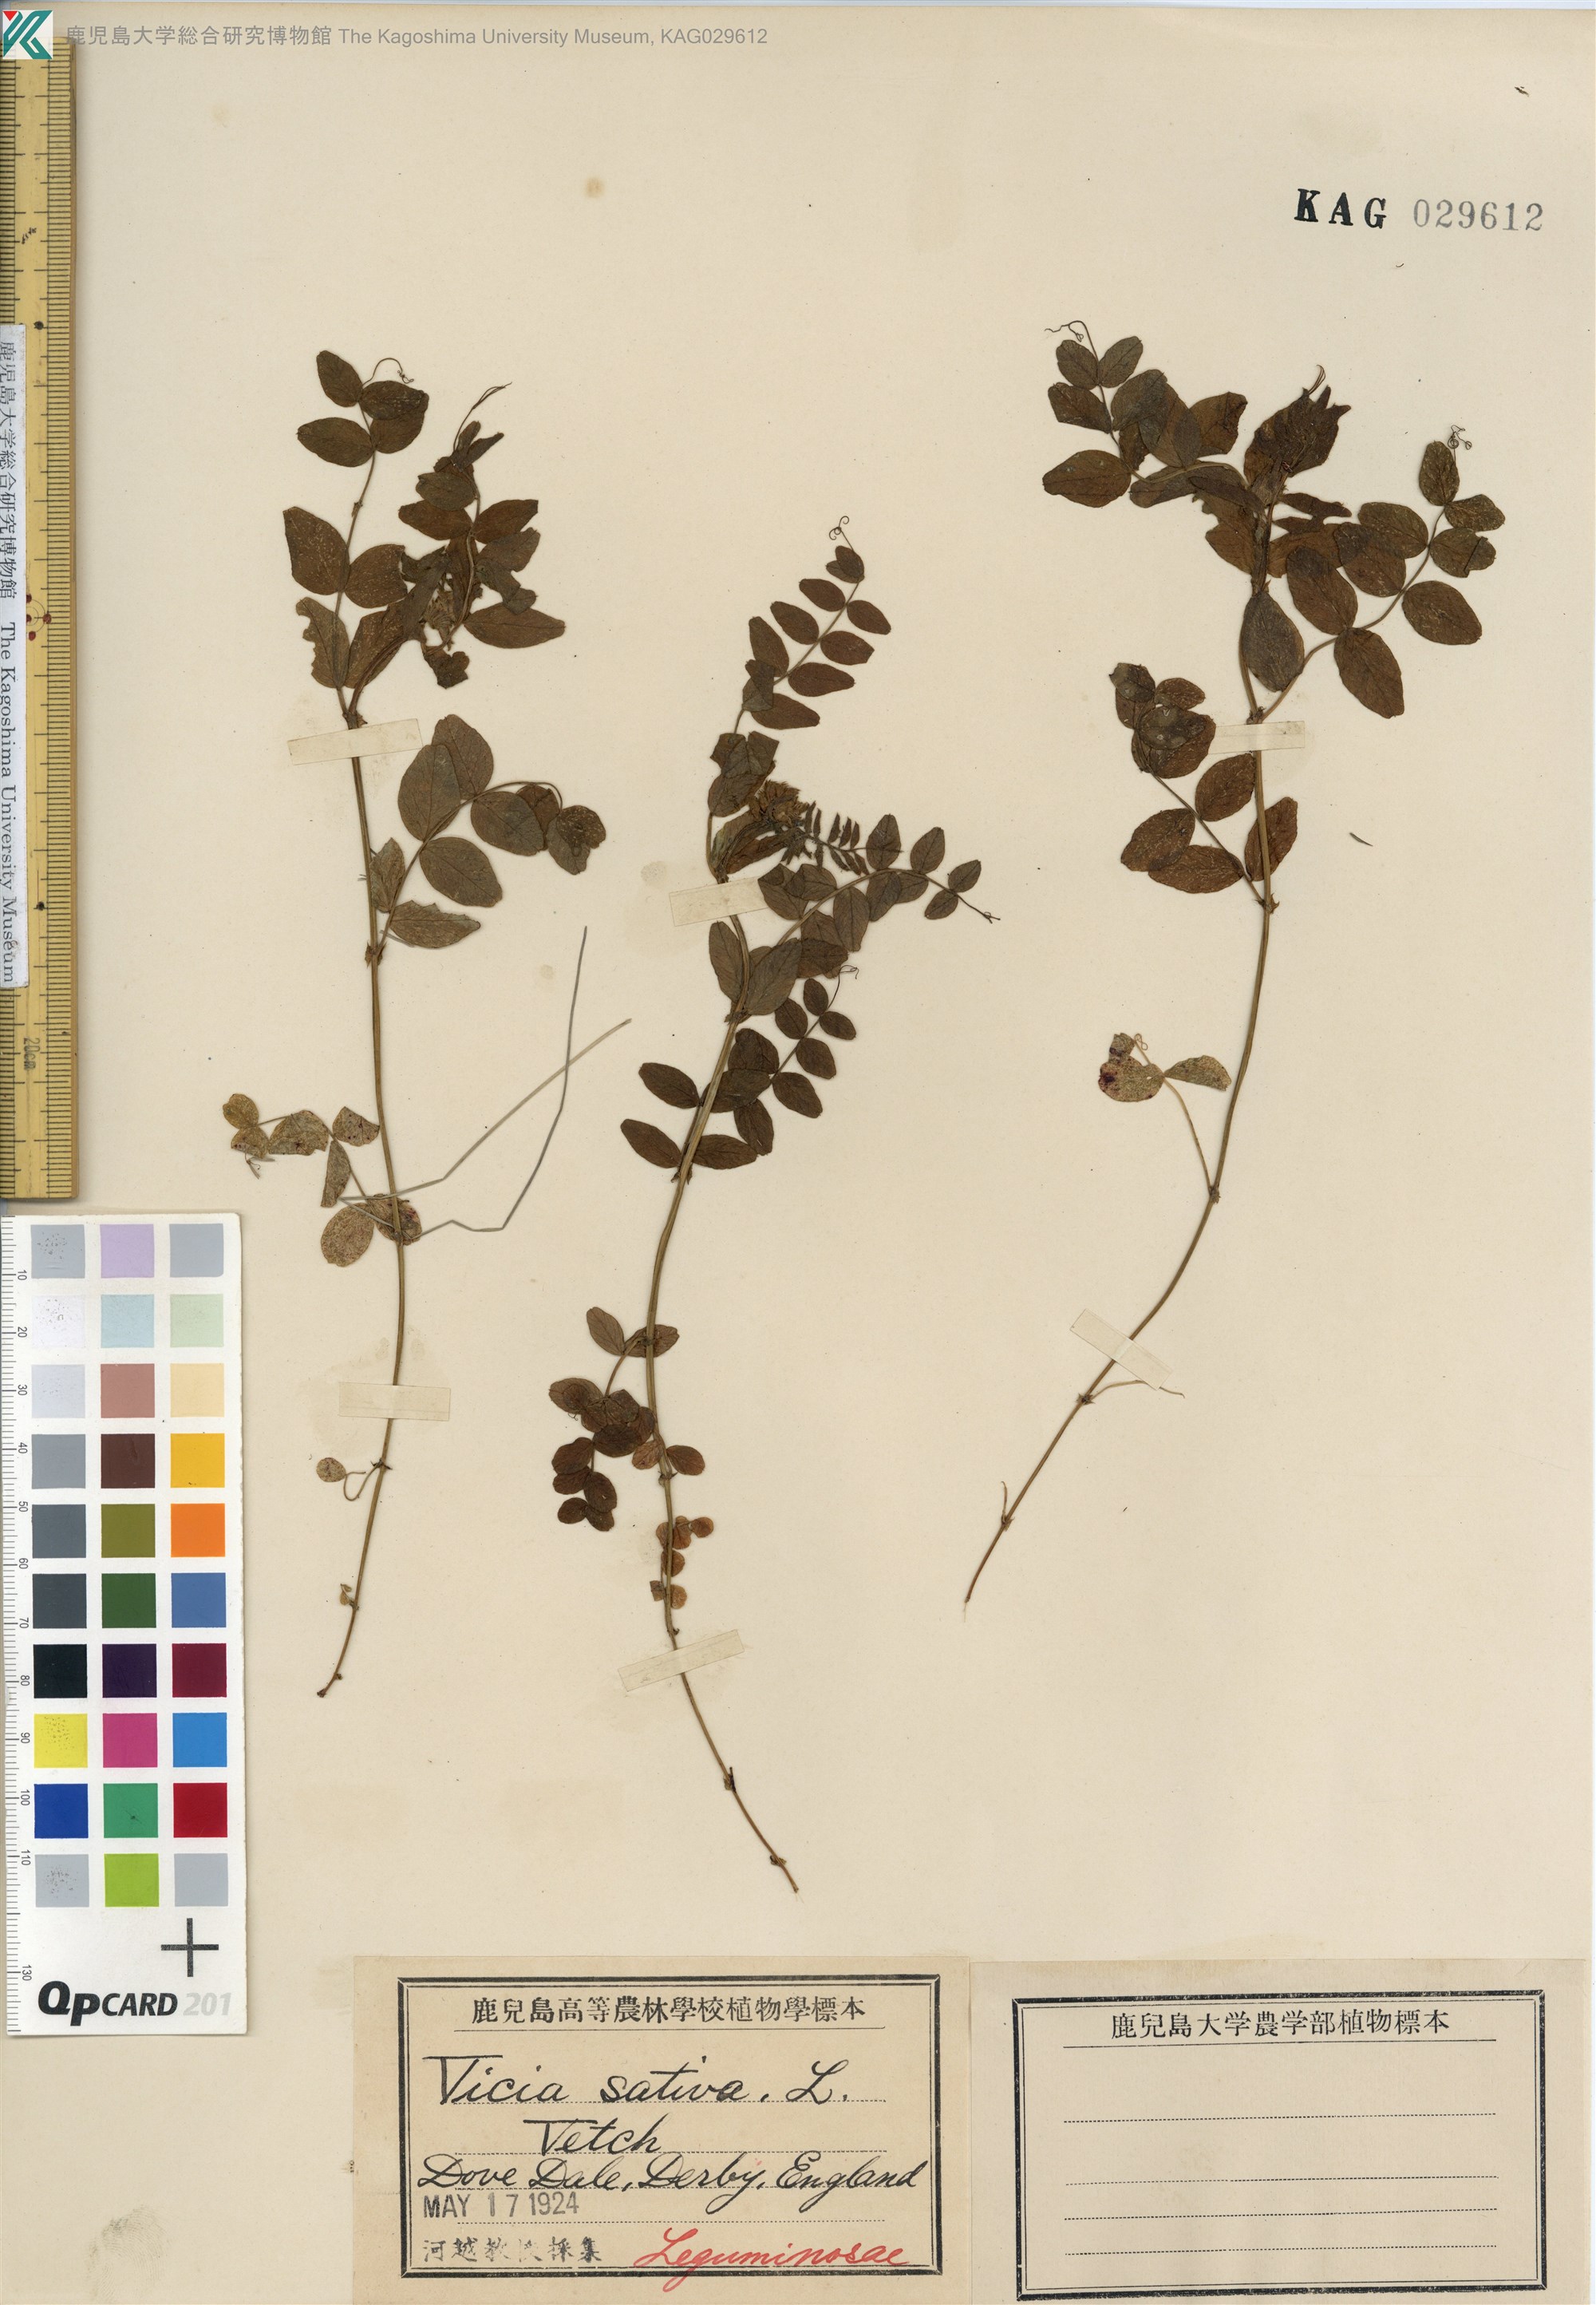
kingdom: Plantae
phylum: Tracheophyta
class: Magnoliopsida
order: Fabales
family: Fabaceae
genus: Vicia
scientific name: Vicia sepium
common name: Bush vetch
